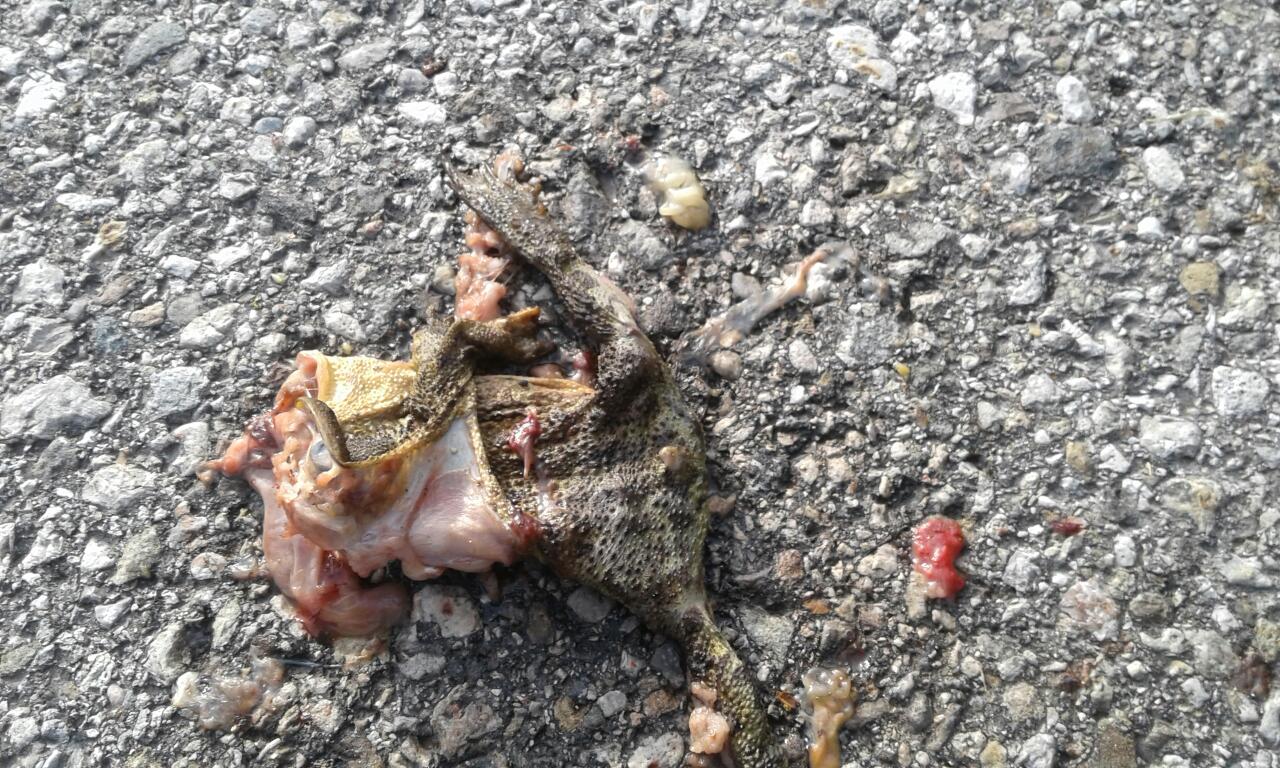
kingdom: Animalia
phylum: Chordata
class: Amphibia
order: Anura
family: Bufonidae
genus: Bufo
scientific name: Bufo bufo
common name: Common toad
